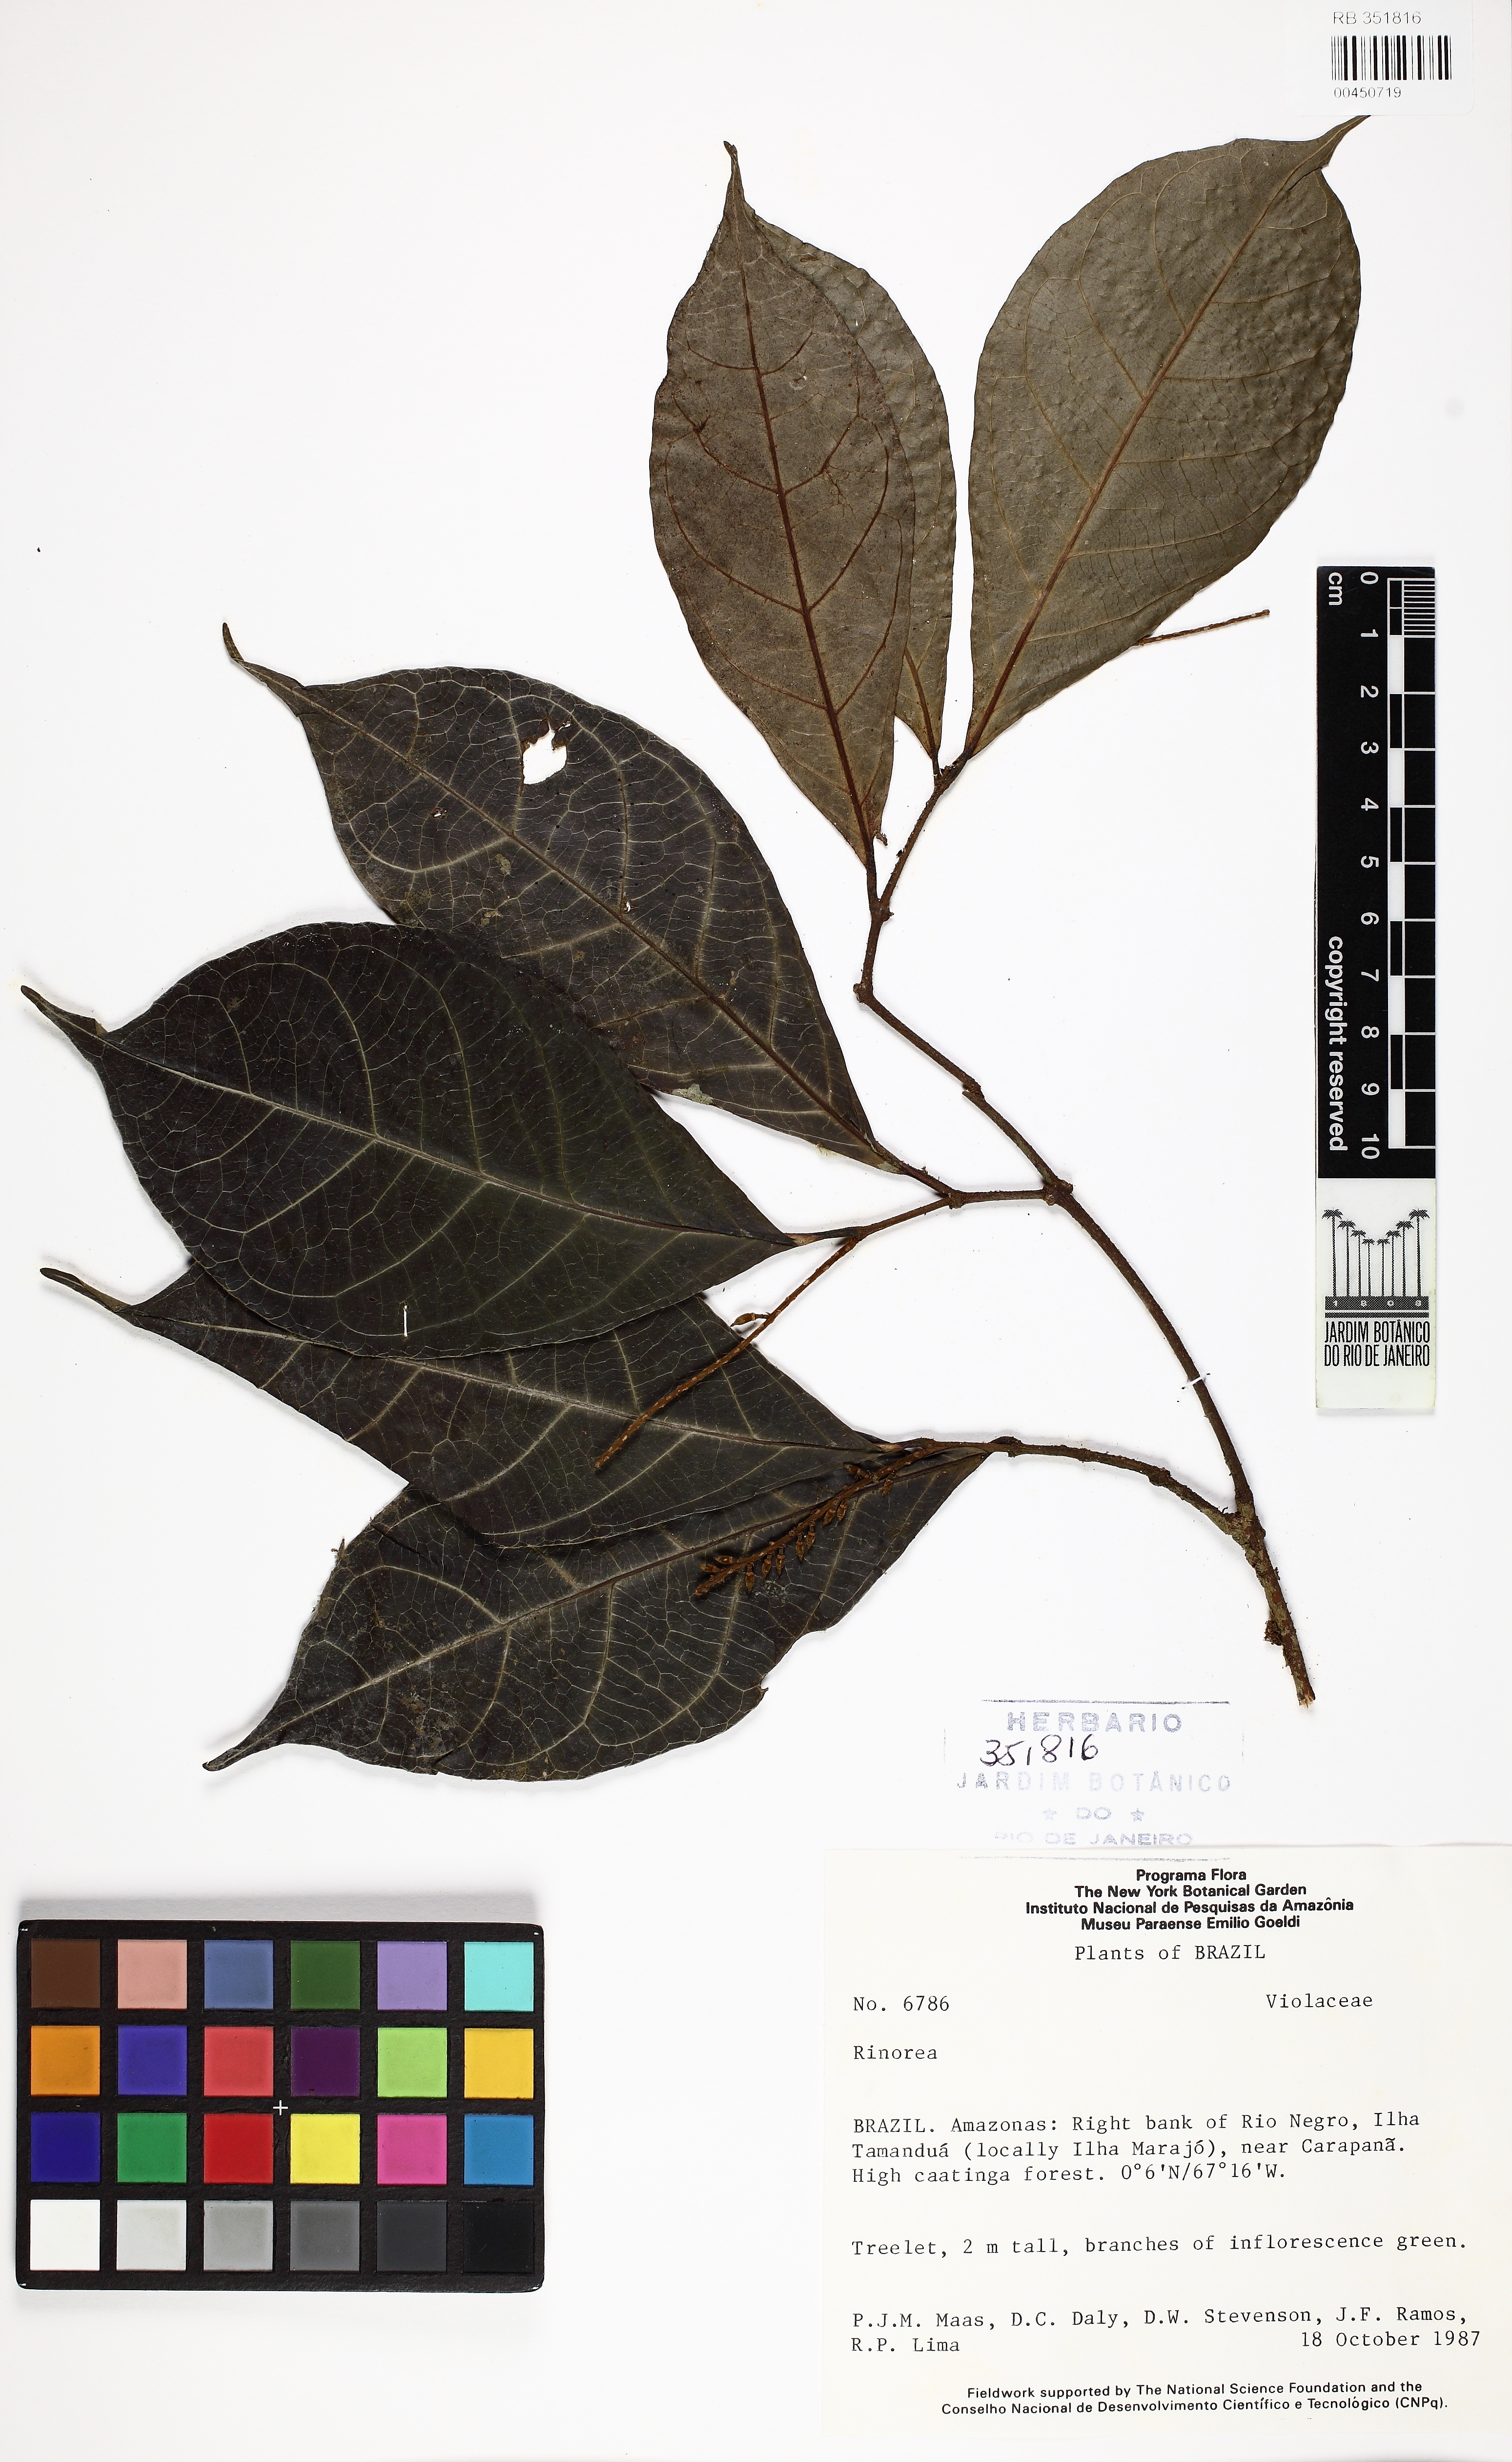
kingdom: Plantae
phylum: Tracheophyta
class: Magnoliopsida
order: Malpighiales
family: Violaceae
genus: Rinorea
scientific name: Rinorea
